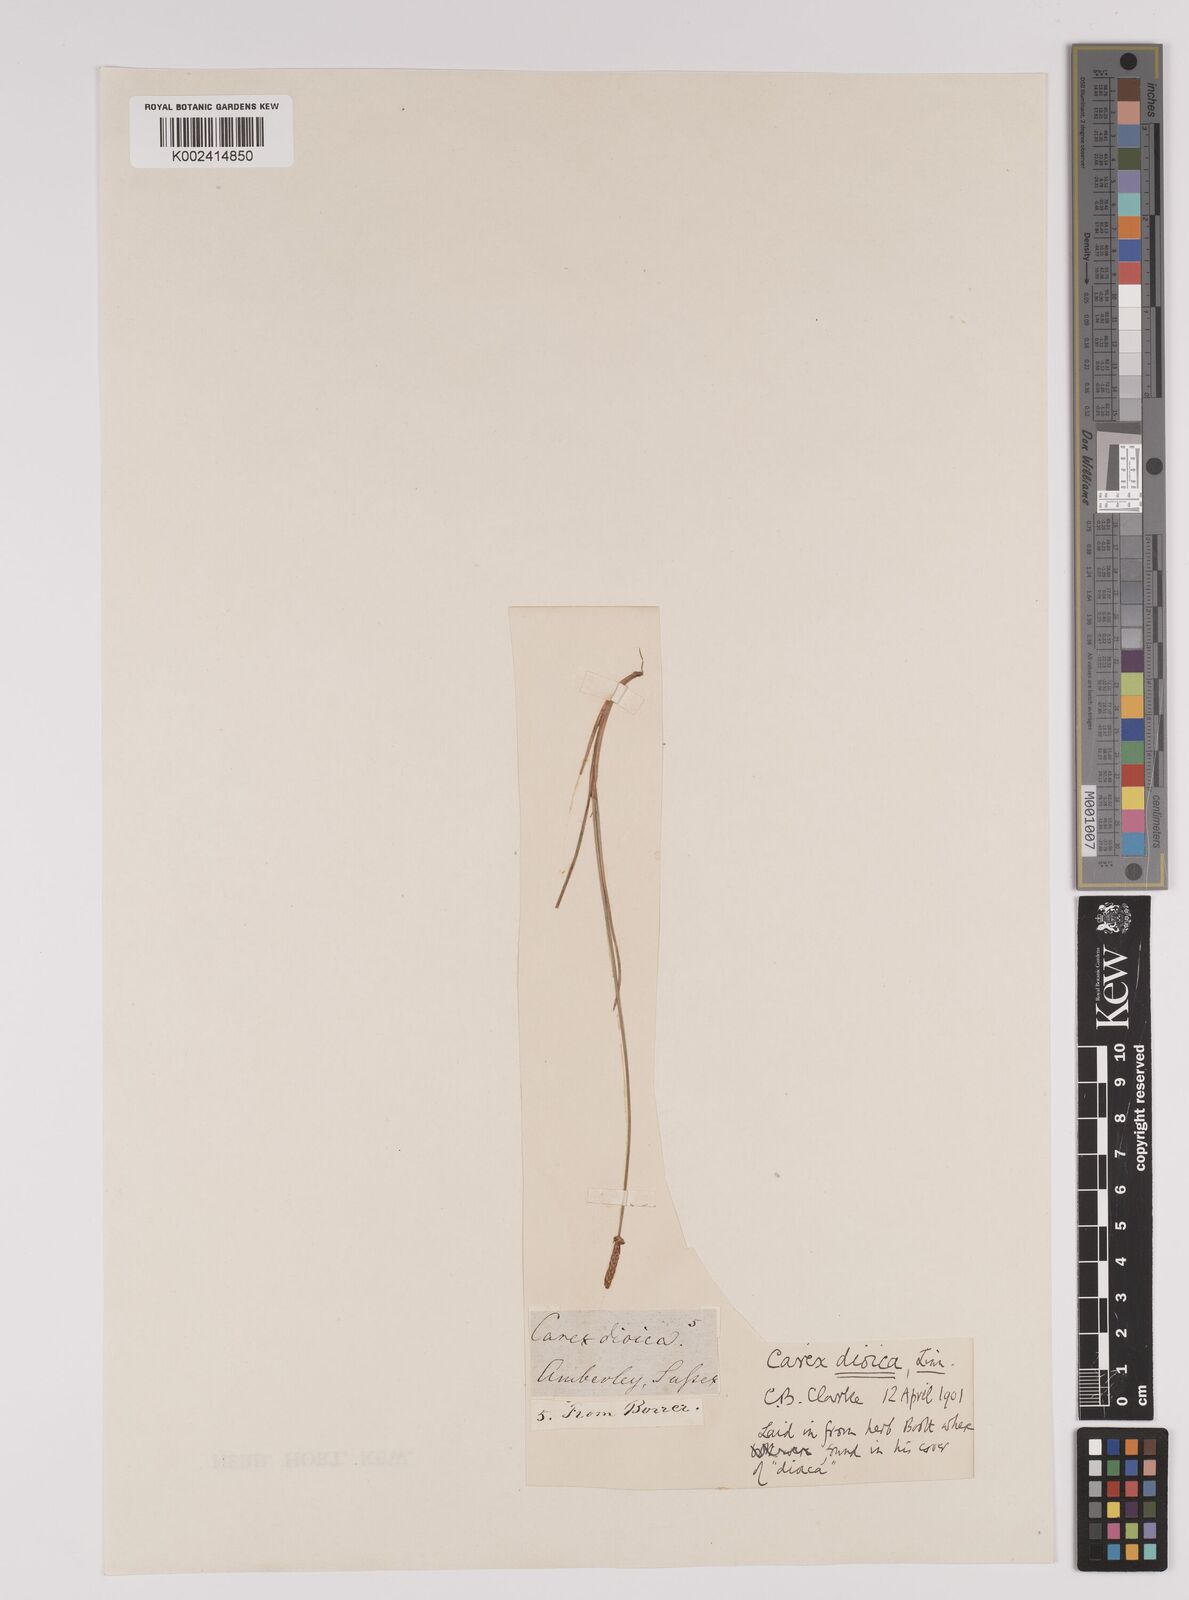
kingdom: Plantae
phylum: Tracheophyta
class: Liliopsida
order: Poales
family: Cyperaceae
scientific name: Cyperaceae
